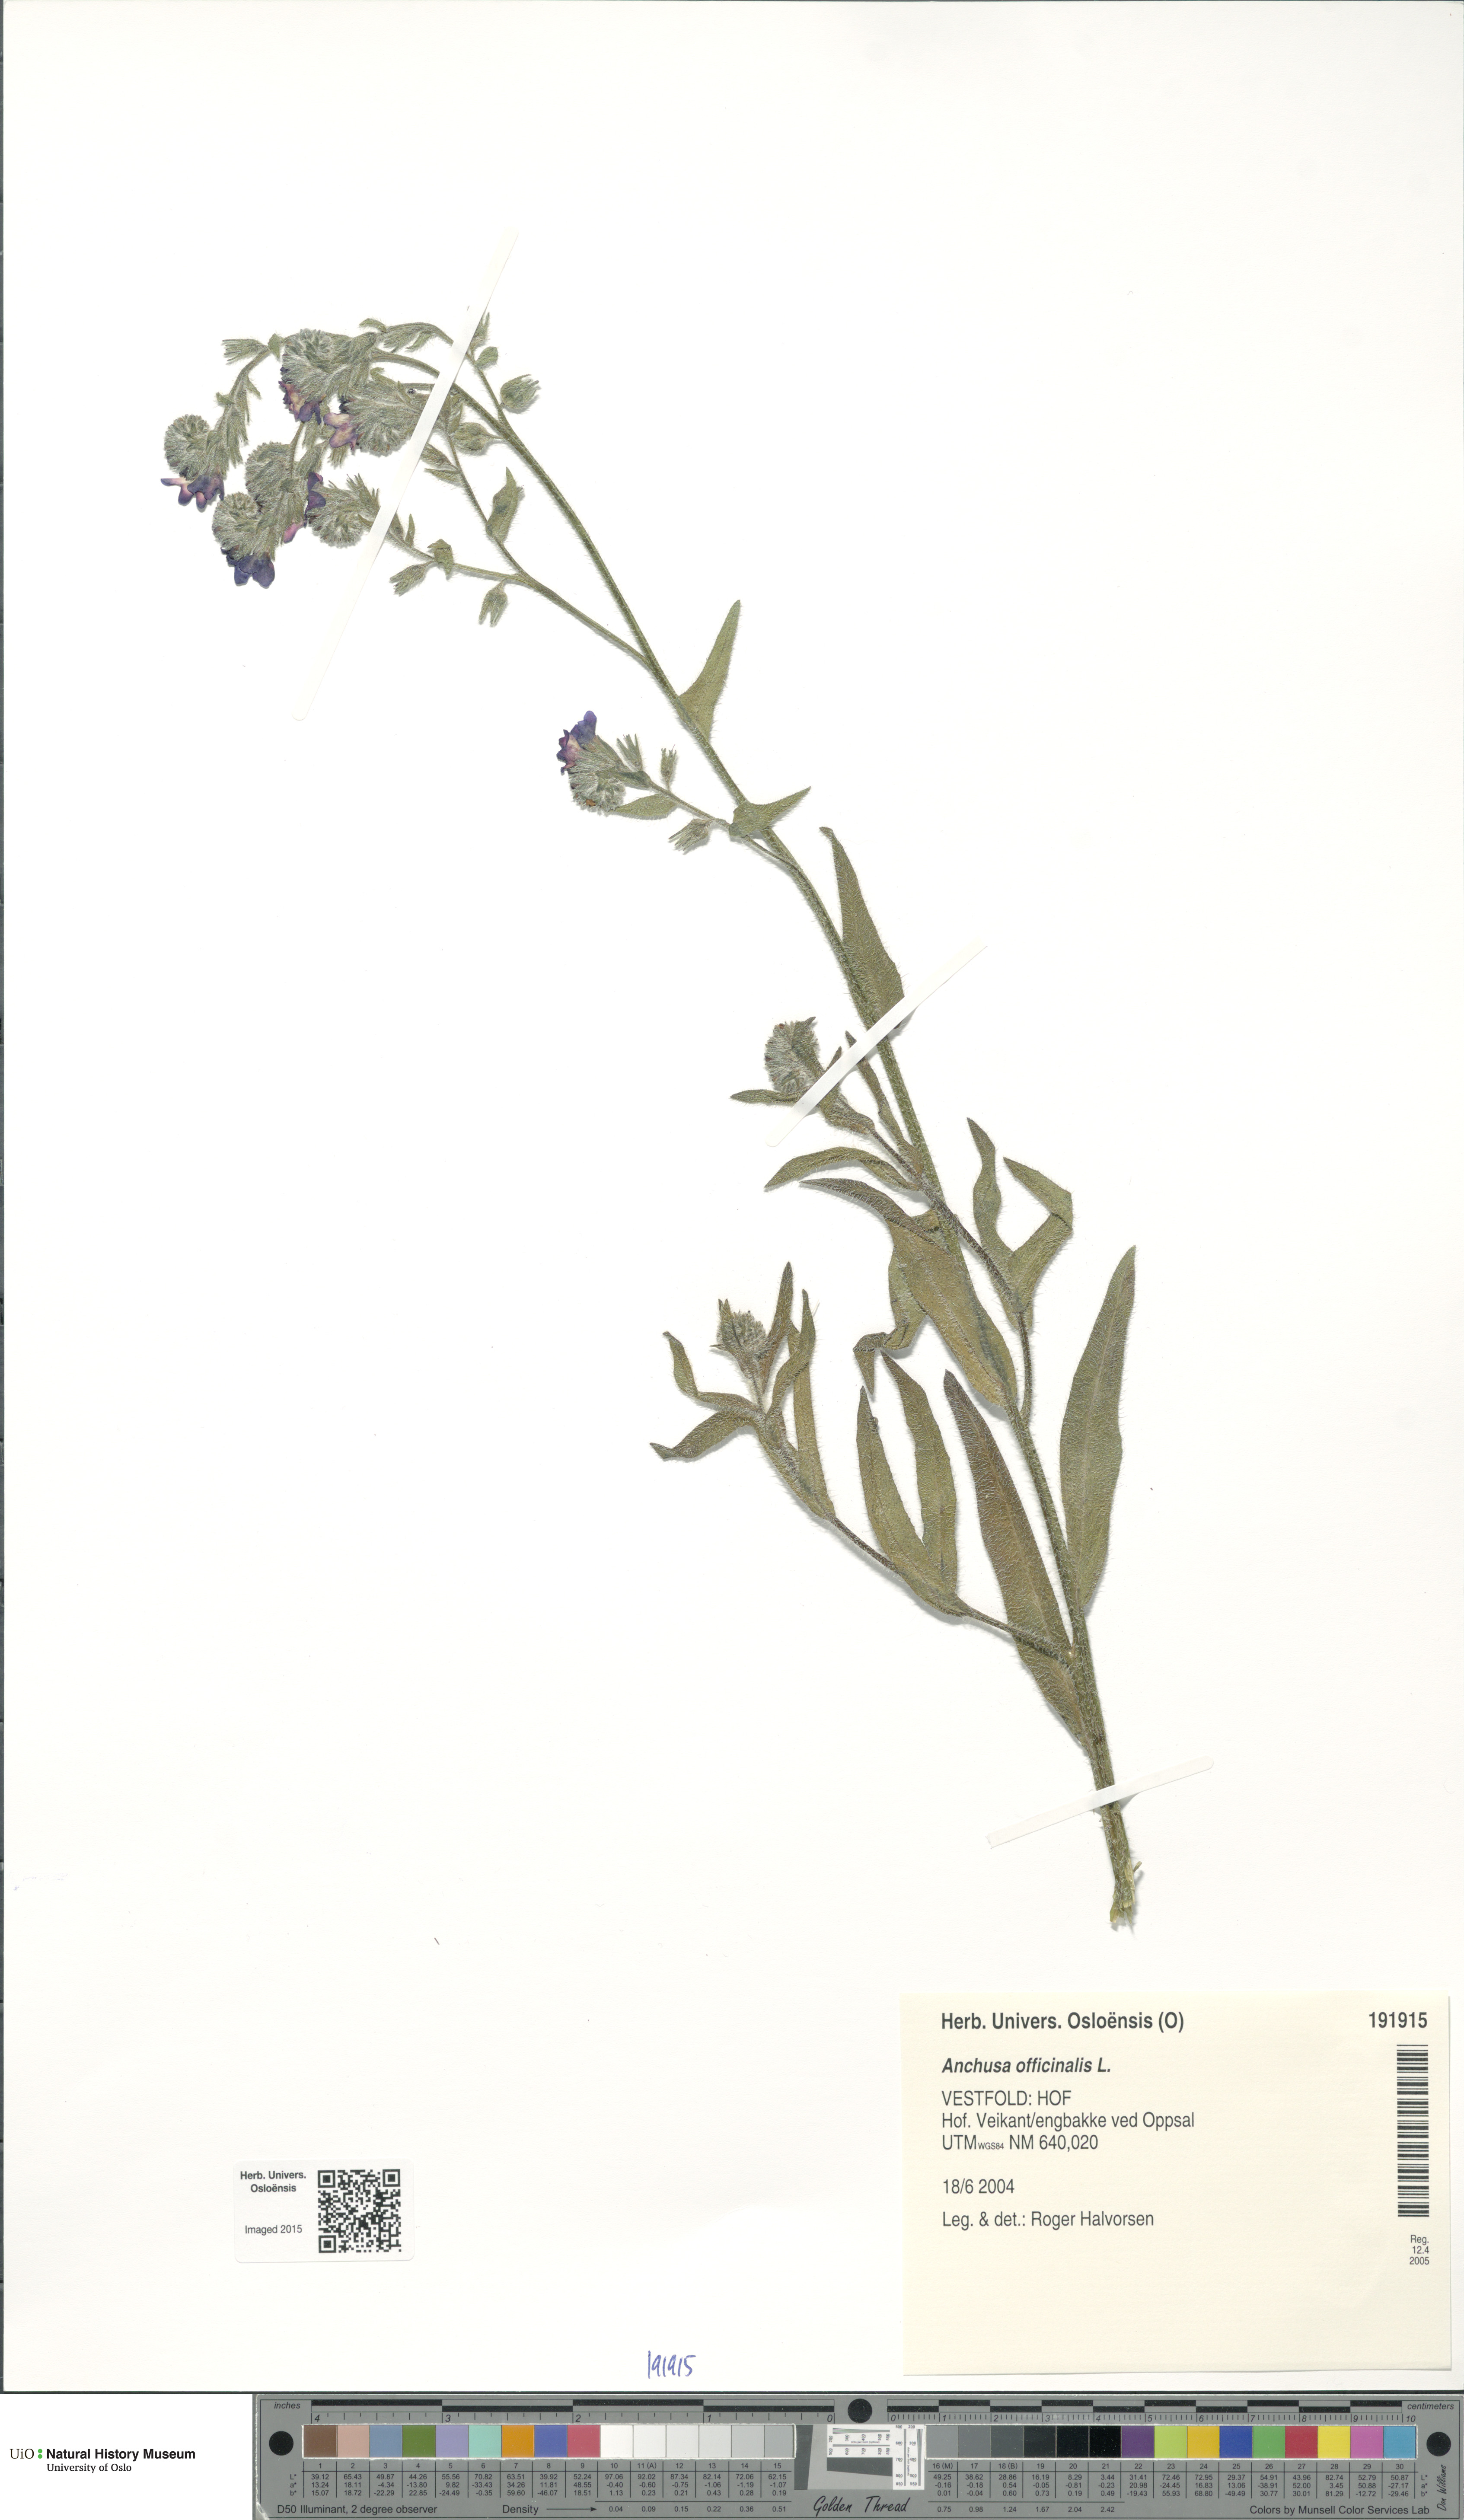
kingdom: Plantae
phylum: Tracheophyta
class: Magnoliopsida
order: Boraginales
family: Boraginaceae
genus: Anchusa
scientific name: Anchusa officinalis
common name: Alkanet
